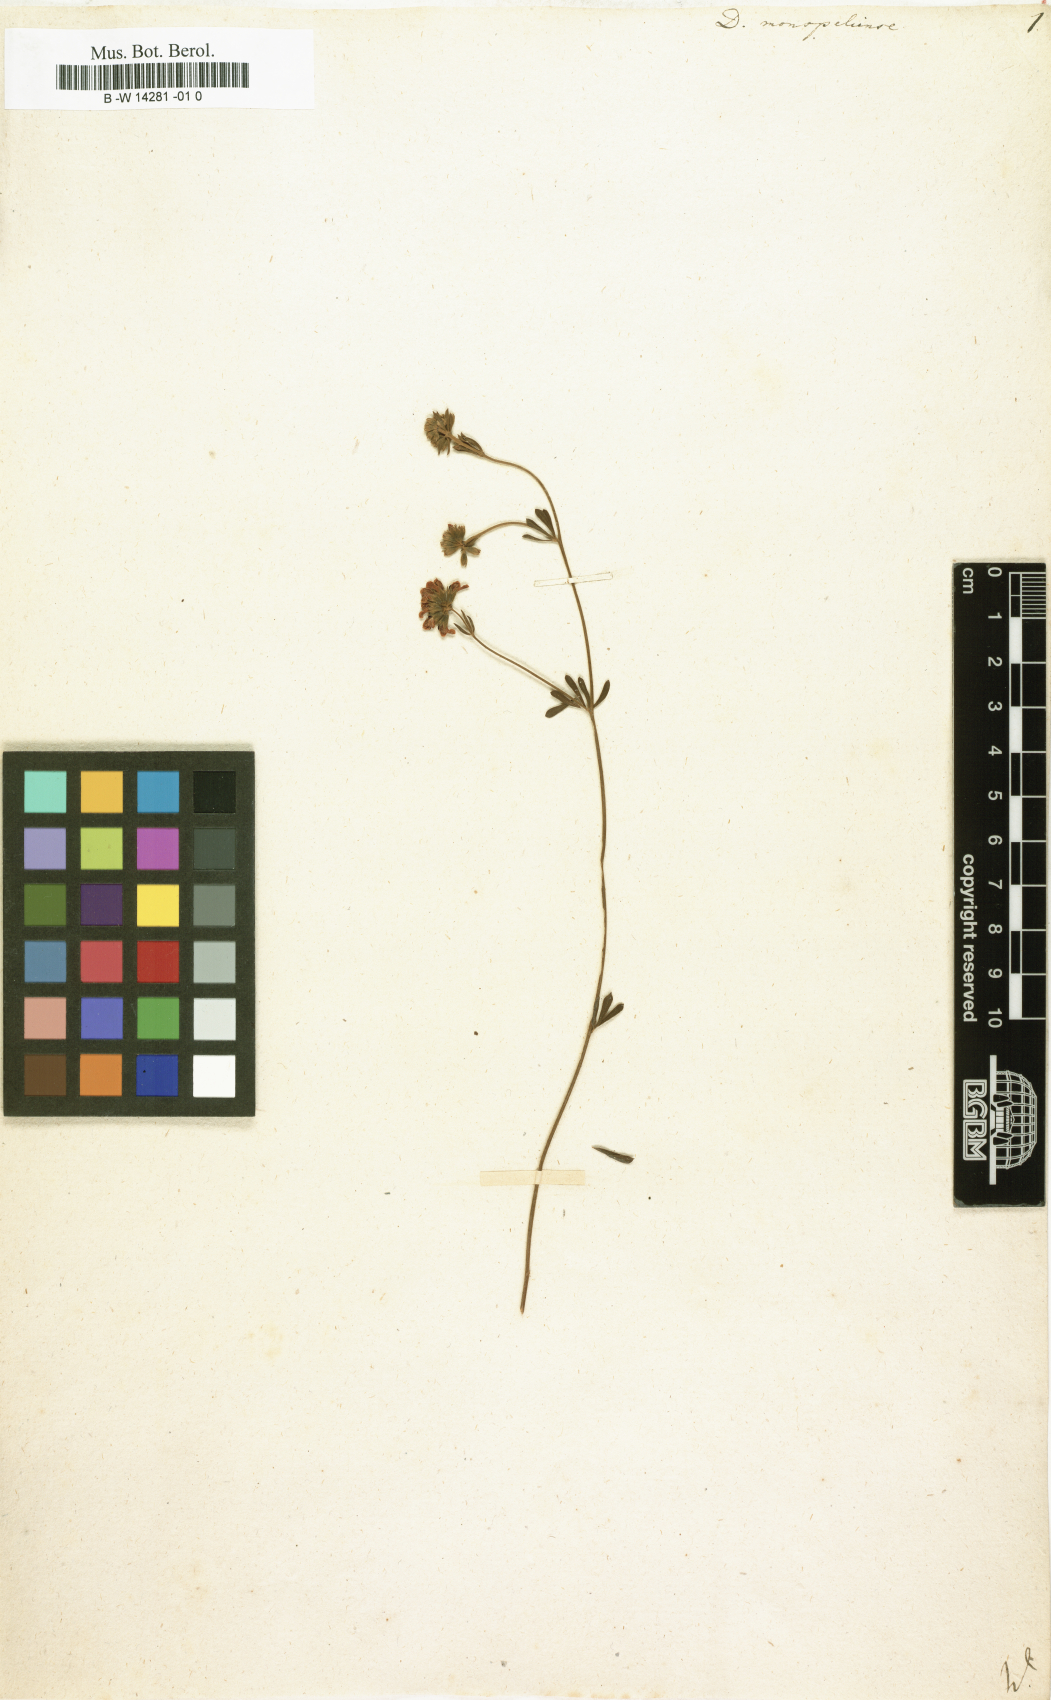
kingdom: Plantae
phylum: Tracheophyta
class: Magnoliopsida
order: Fabales
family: Fabaceae
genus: Lotus
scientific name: Lotus dorycnium
